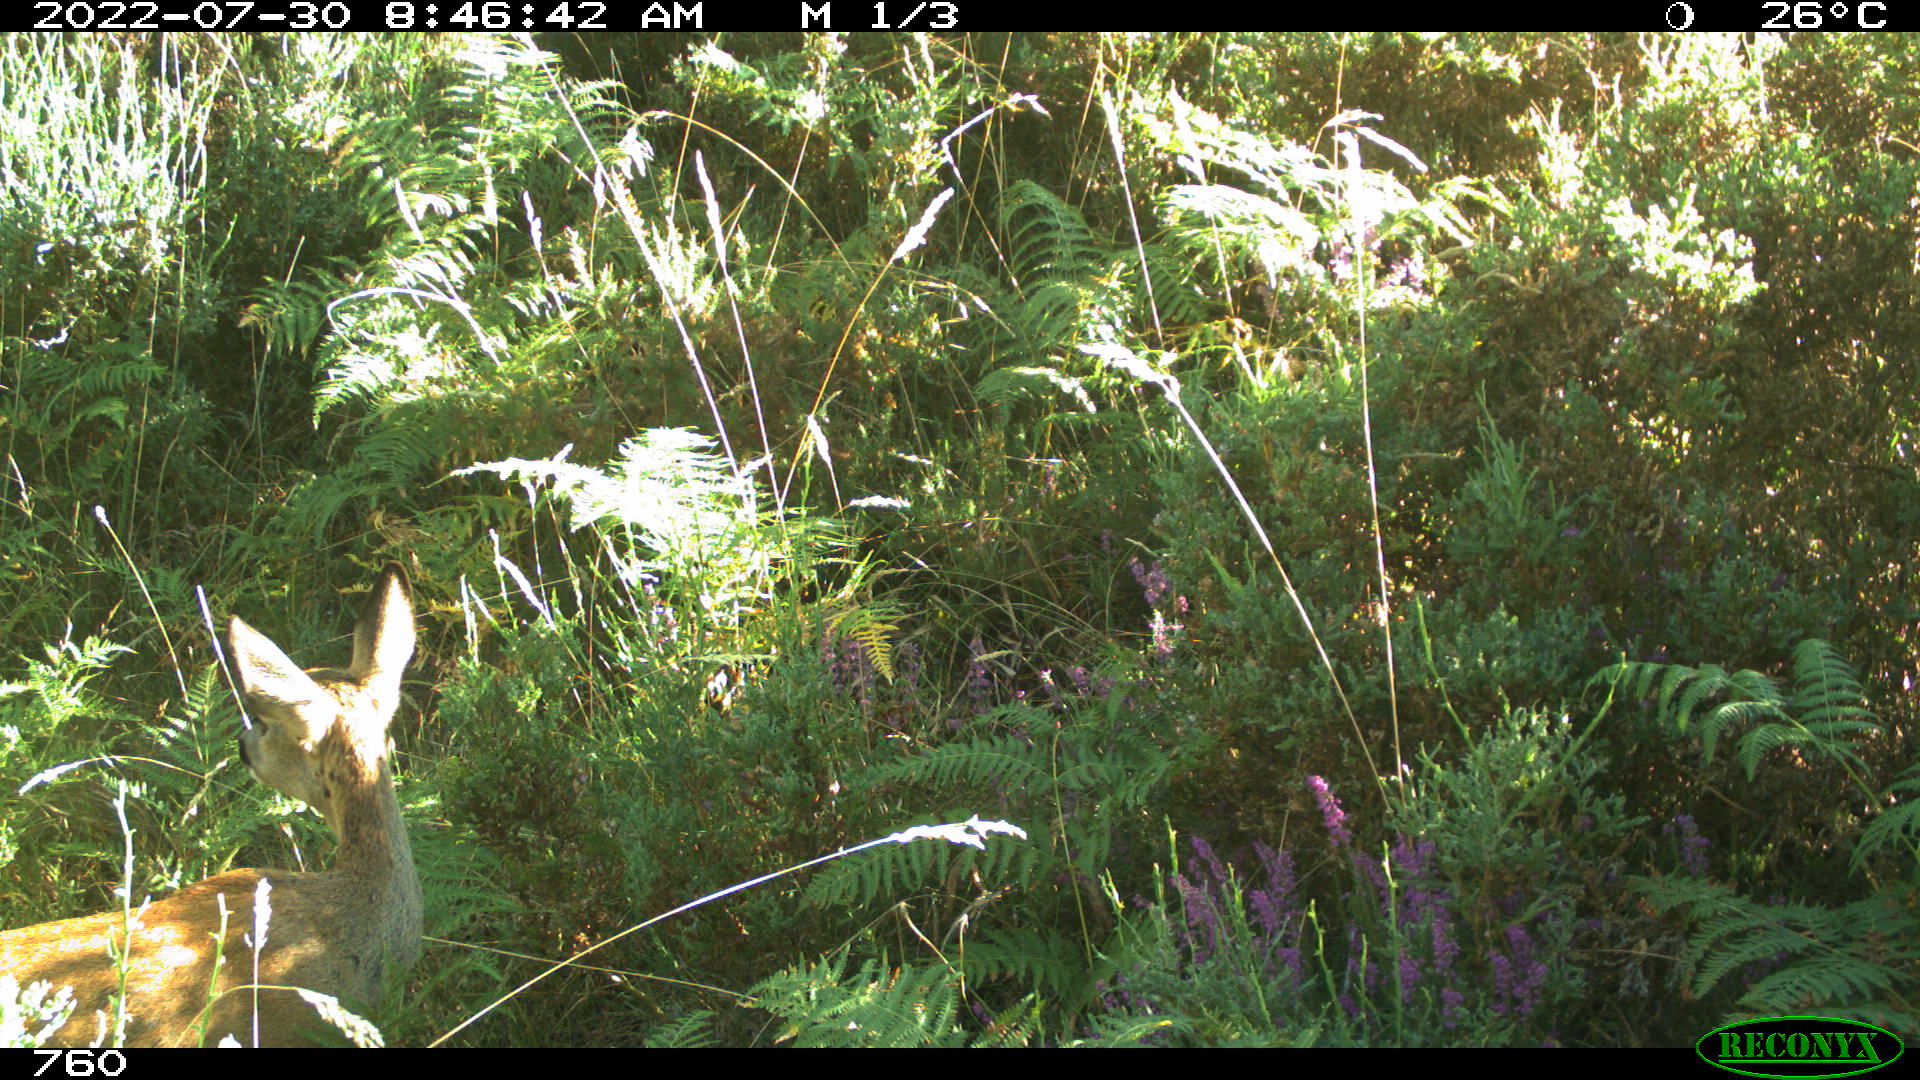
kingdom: Animalia
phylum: Chordata
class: Mammalia
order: Artiodactyla
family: Cervidae
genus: Capreolus
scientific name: Capreolus capreolus
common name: Western roe deer
